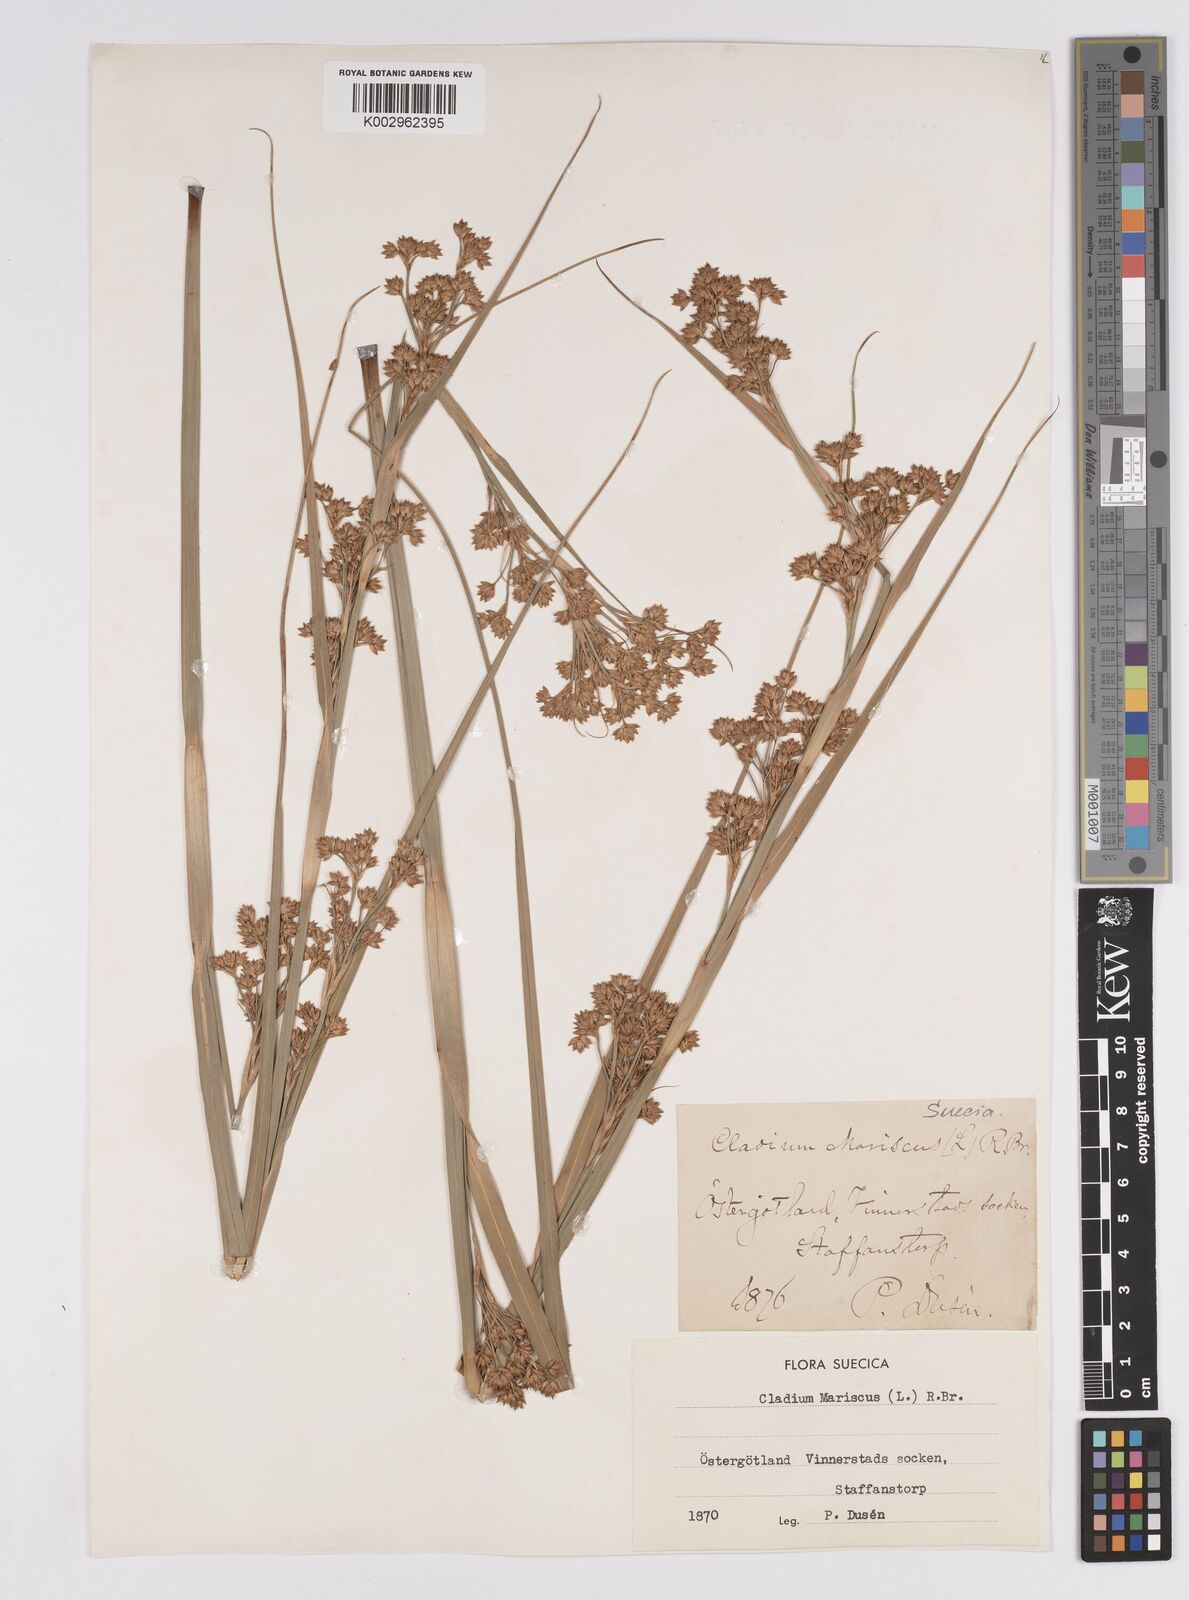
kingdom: Plantae
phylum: Tracheophyta
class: Liliopsida
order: Poales
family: Cyperaceae
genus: Cladium
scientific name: Cladium mariscus
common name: Great fen-sedge
